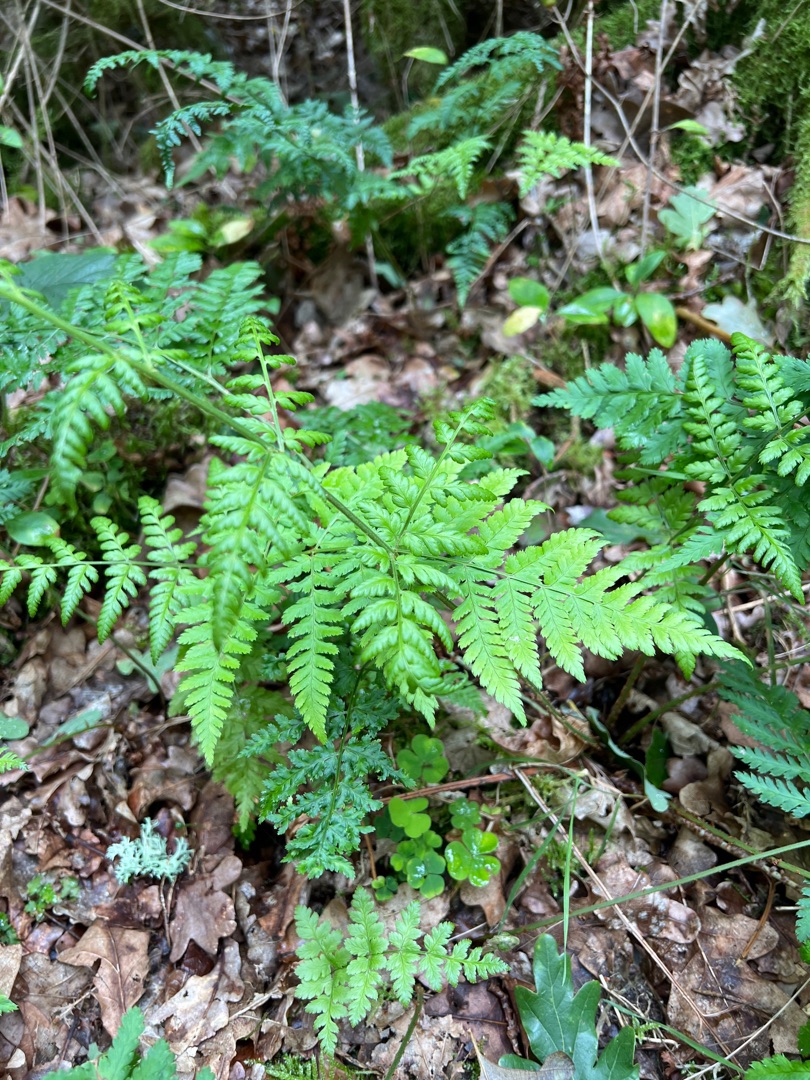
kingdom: Plantae
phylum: Tracheophyta
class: Polypodiopsida
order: Polypodiales
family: Dryopteridaceae
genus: Dryopteris
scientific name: Dryopteris dilatata
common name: Bredbladet mangeløv
